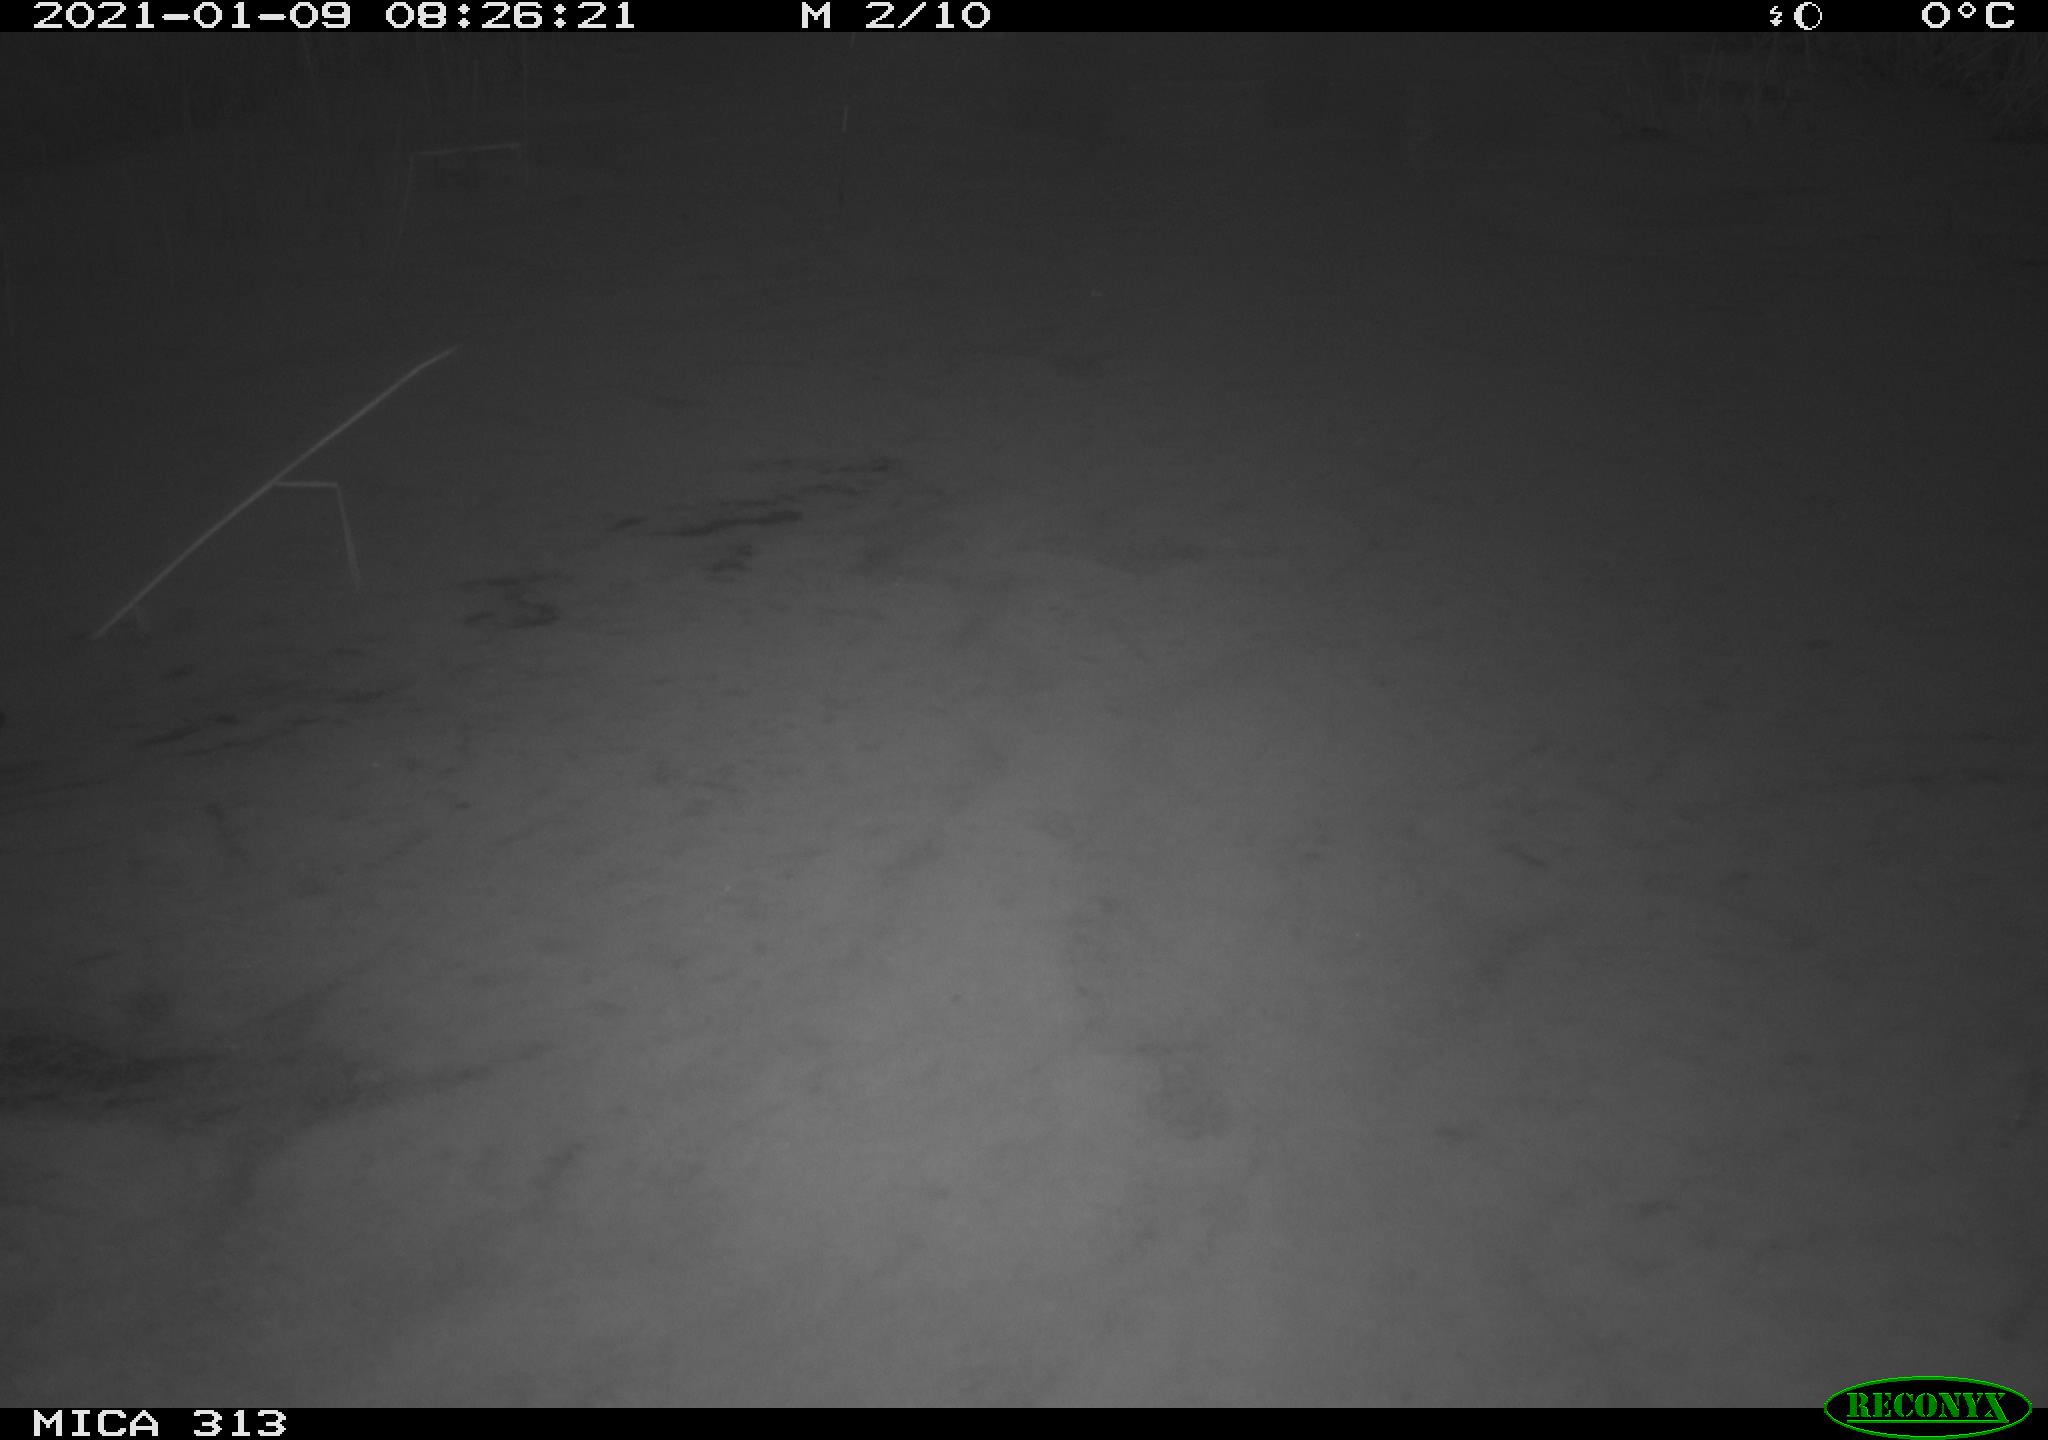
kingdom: Animalia
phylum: Chordata
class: Aves
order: Gruiformes
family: Rallidae
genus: Gallinula
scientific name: Gallinula chloropus
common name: Common moorhen
